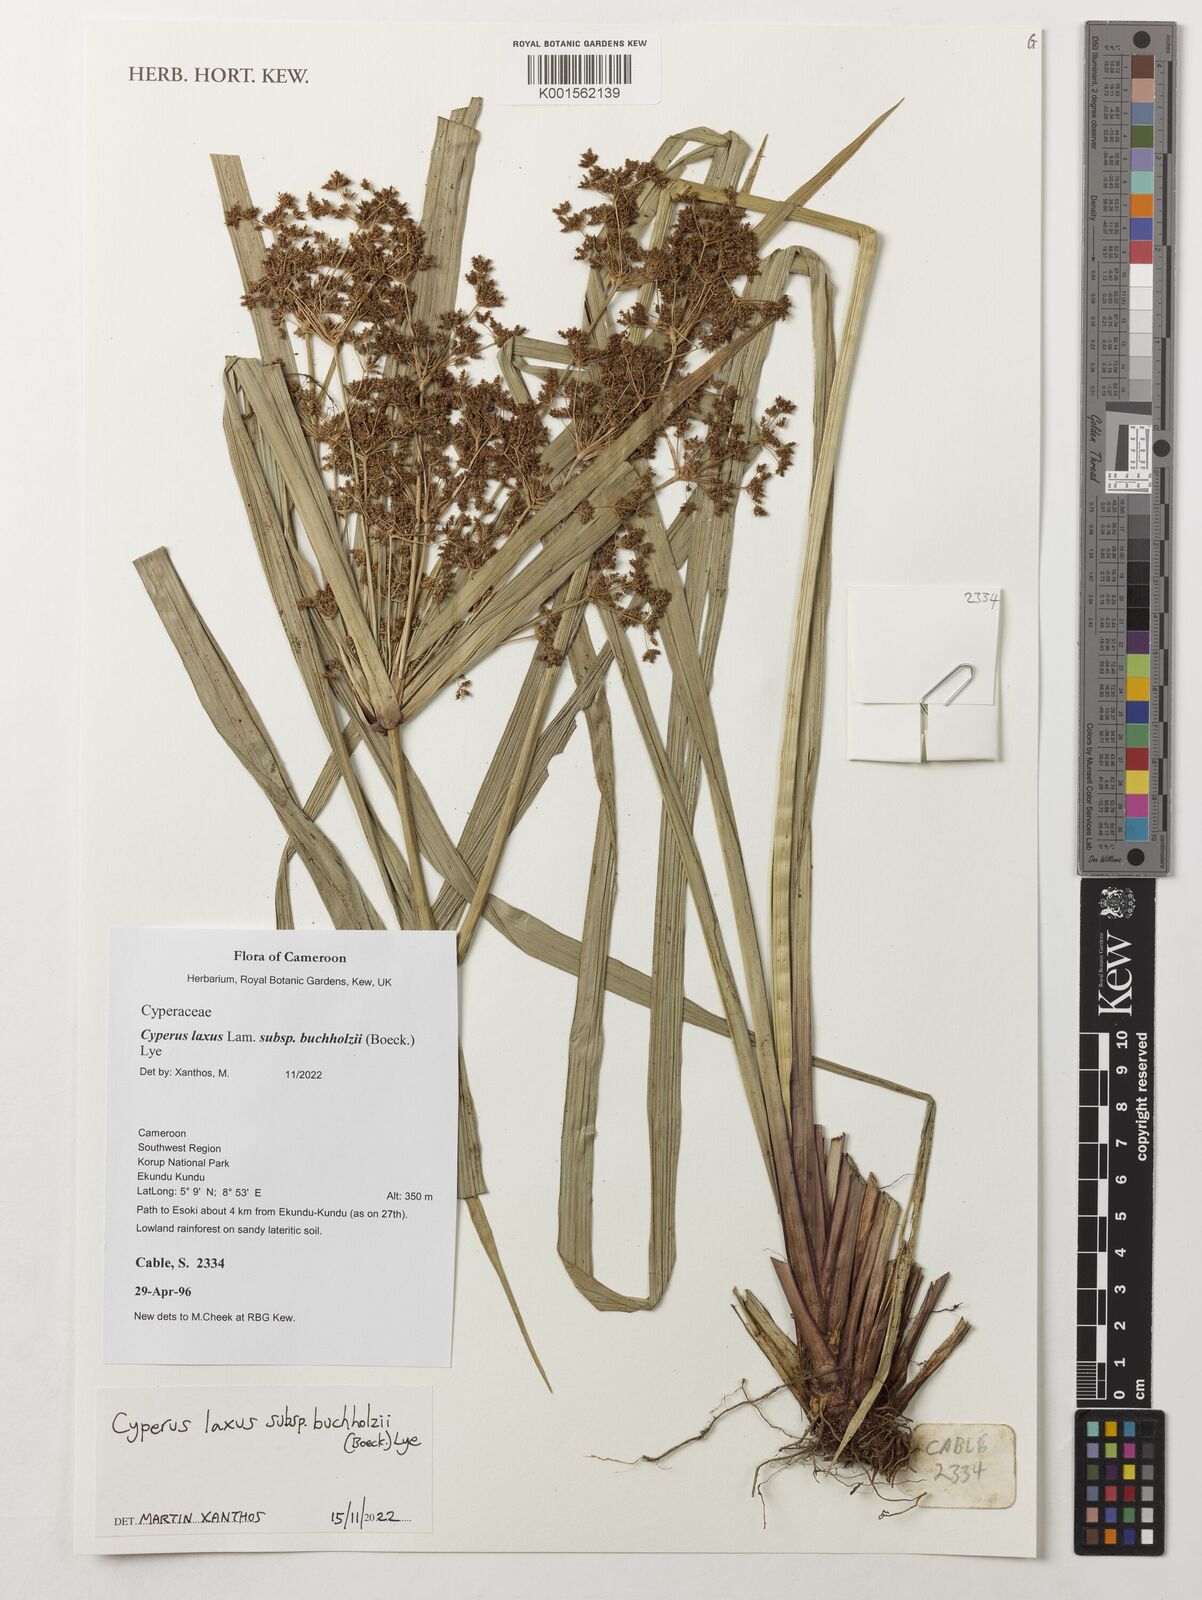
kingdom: Plantae
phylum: Tracheophyta
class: Liliopsida
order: Poales
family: Cyperaceae
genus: Cyperus
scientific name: Cyperus buchholzii
